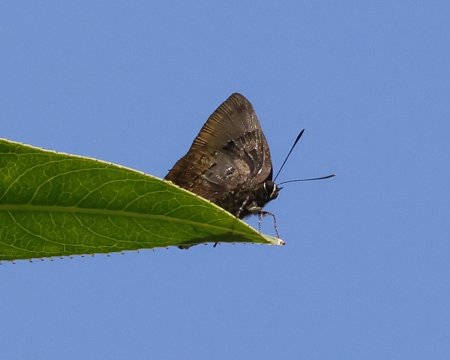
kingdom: Animalia
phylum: Arthropoda
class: Insecta
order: Lepidoptera
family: Lycaenidae
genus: Parrhasius
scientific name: Parrhasius orgia
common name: Variable Hairstreak
